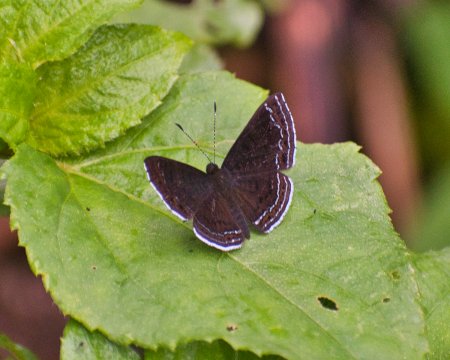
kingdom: Animalia
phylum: Arthropoda
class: Insecta
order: Lepidoptera
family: Lycaenidae
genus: Emesis
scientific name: Emesis irina
